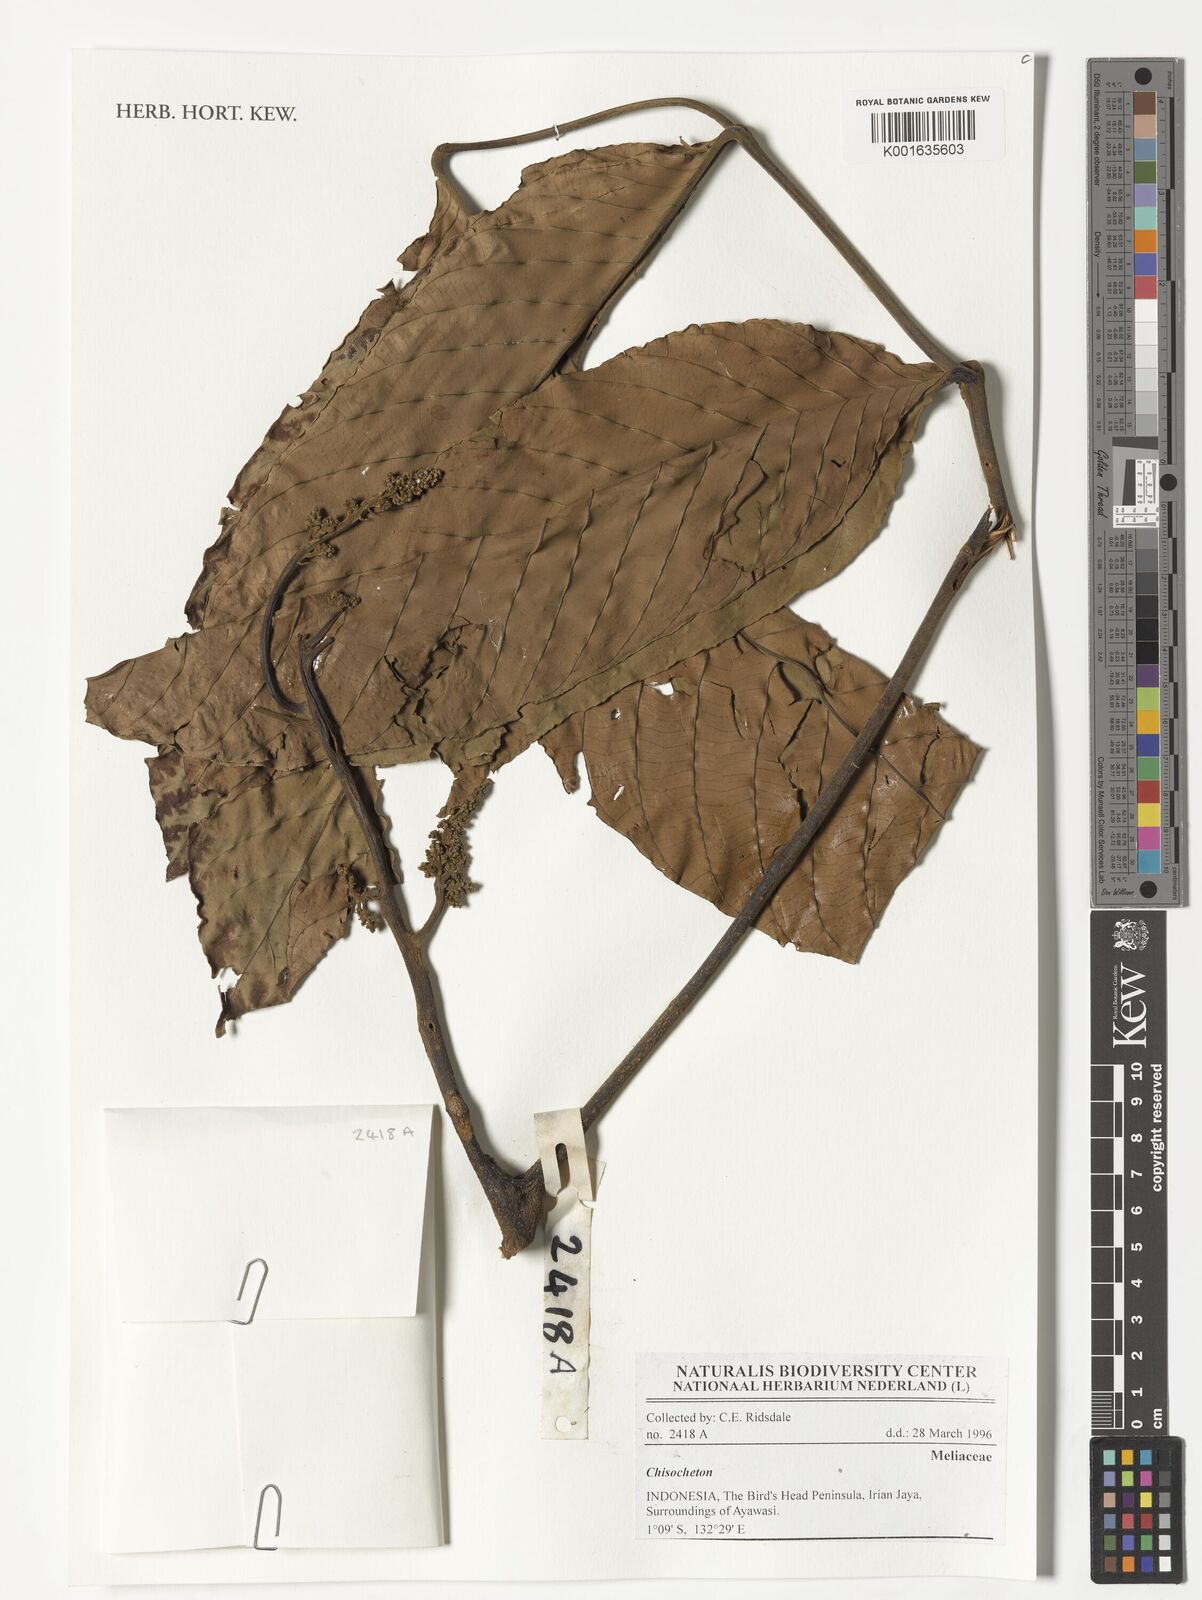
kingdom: Plantae
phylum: Tracheophyta
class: Magnoliopsida
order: Sapindales
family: Meliaceae
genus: Chisocheton
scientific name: Chisocheton
